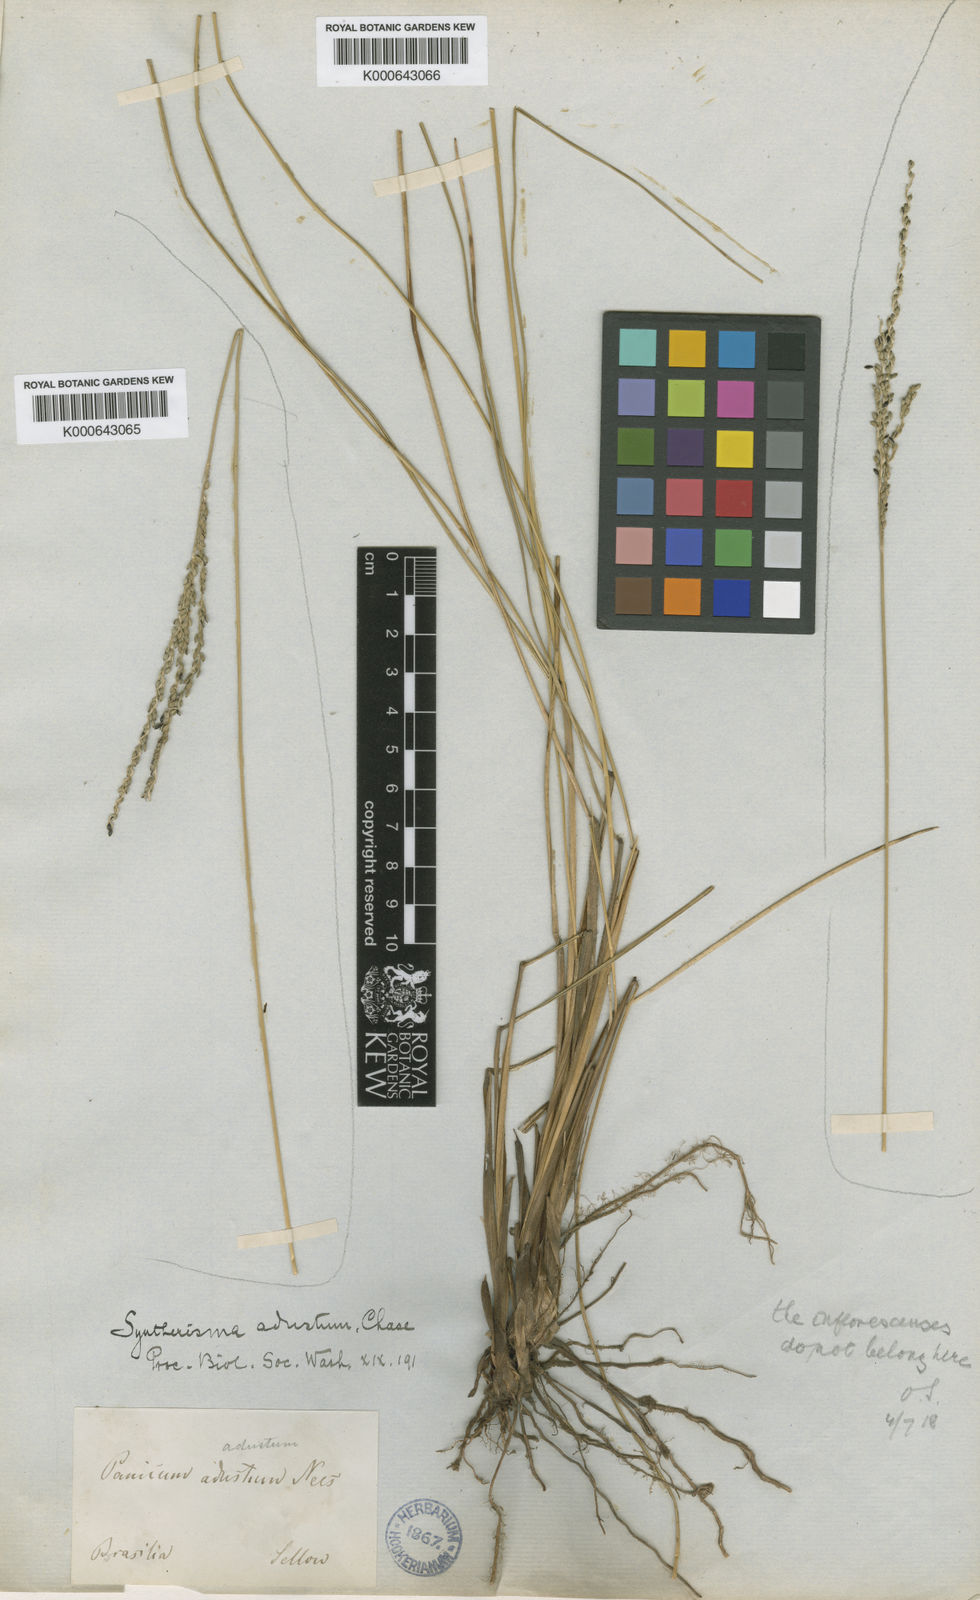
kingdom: Plantae
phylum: Tracheophyta
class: Liliopsida
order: Poales
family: Poaceae
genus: Digitaria
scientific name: Digitaria phaeothrix
